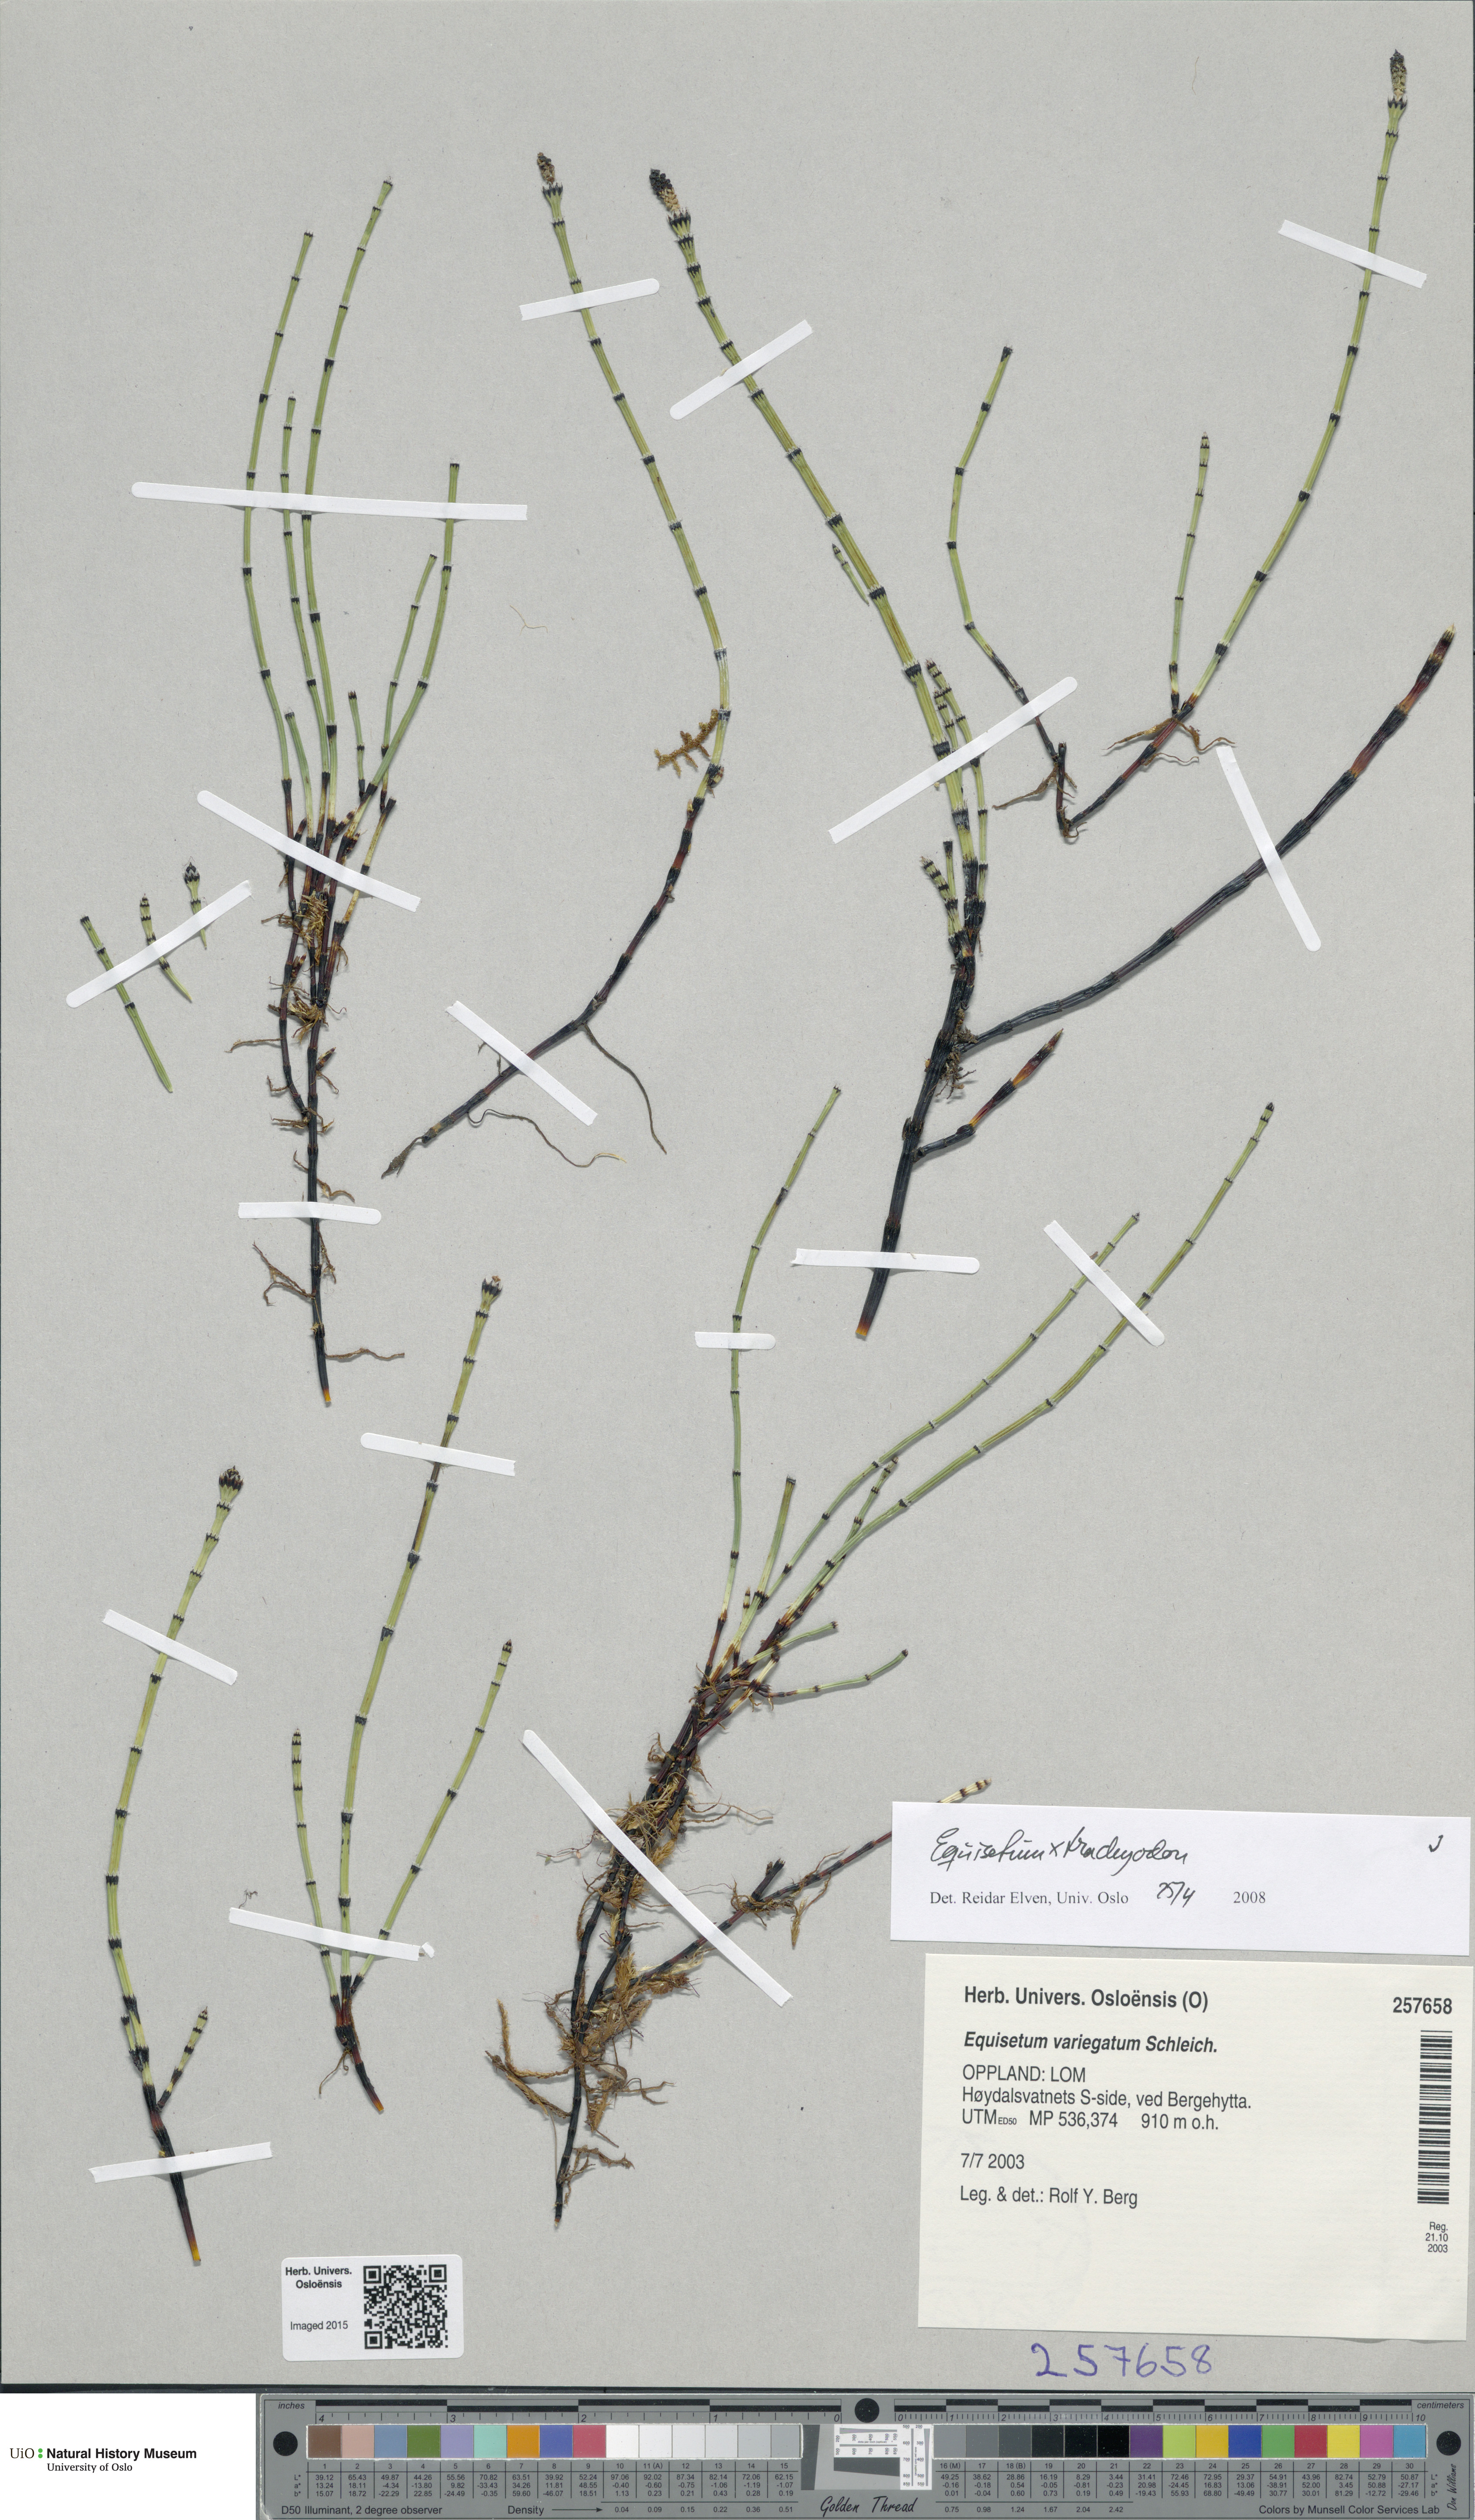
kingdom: Plantae
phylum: Tracheophyta
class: Polypodiopsida
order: Equisetales
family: Equisetaceae
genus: Equisetum
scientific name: Equisetum trachyodon
